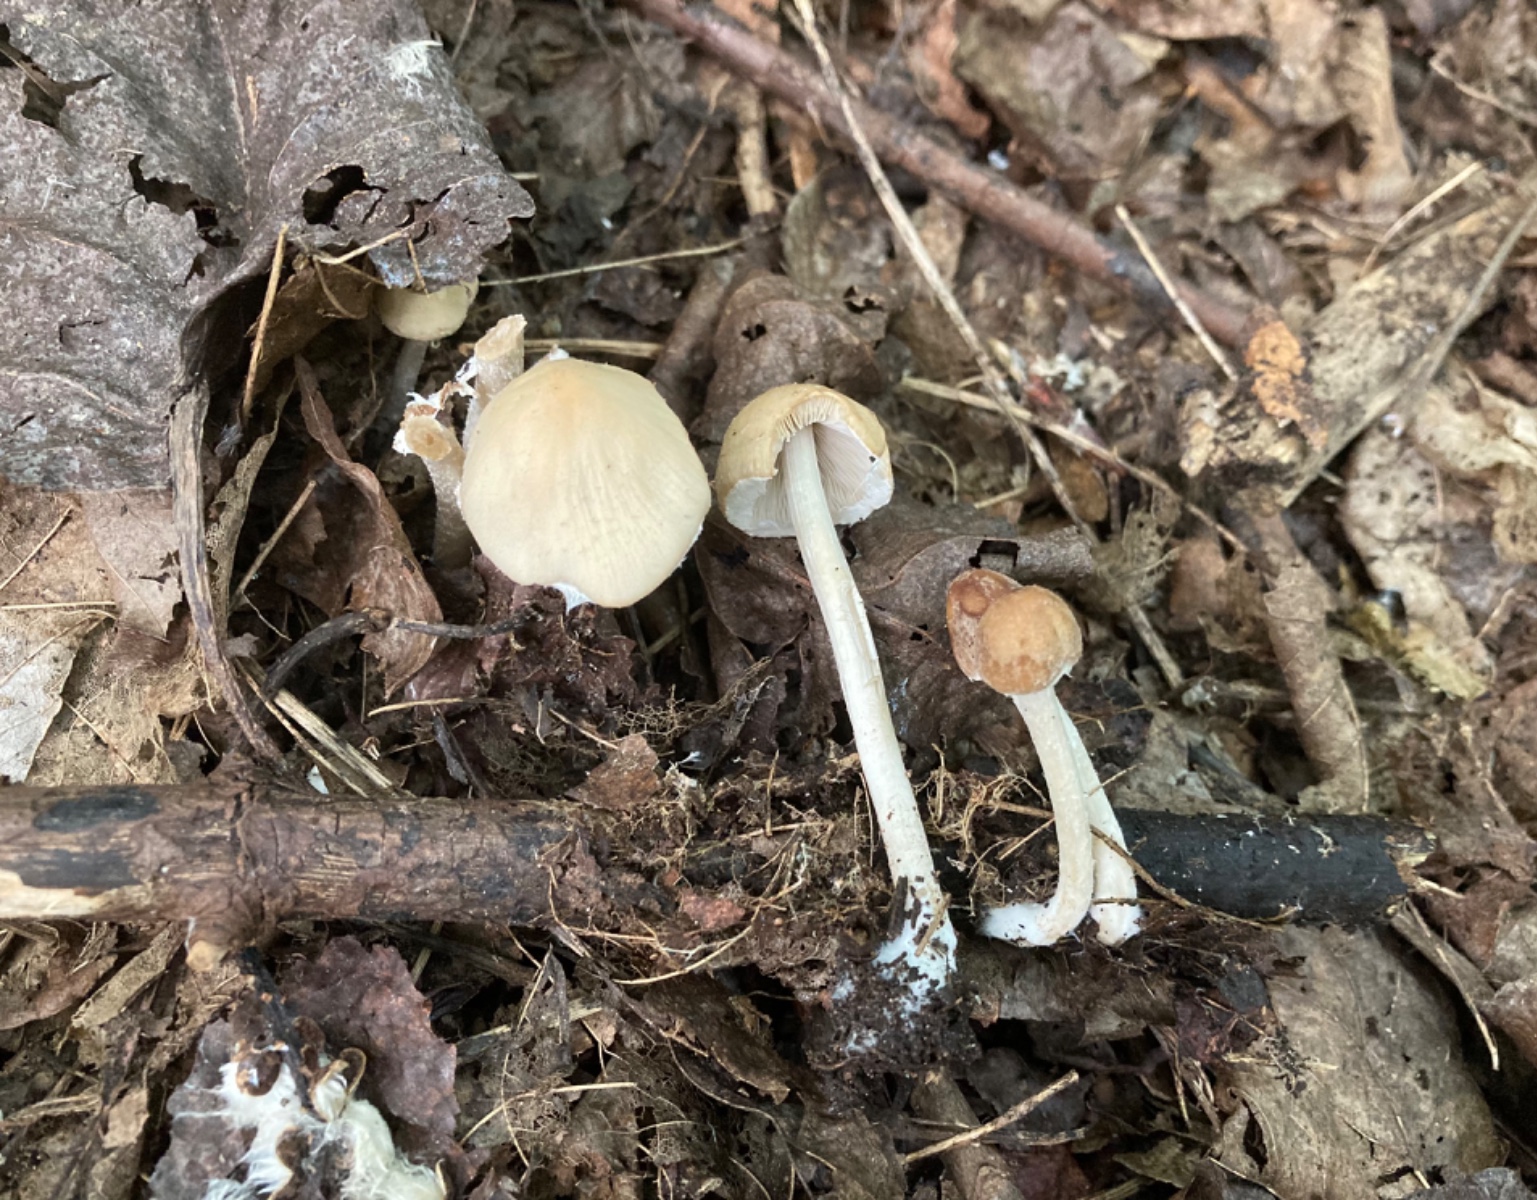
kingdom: Fungi
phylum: Basidiomycota
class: Agaricomycetes
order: Agaricales
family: Psathyrellaceae
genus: Candolleomyces
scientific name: Candolleomyces candolleanus
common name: Candolles mørkhat
